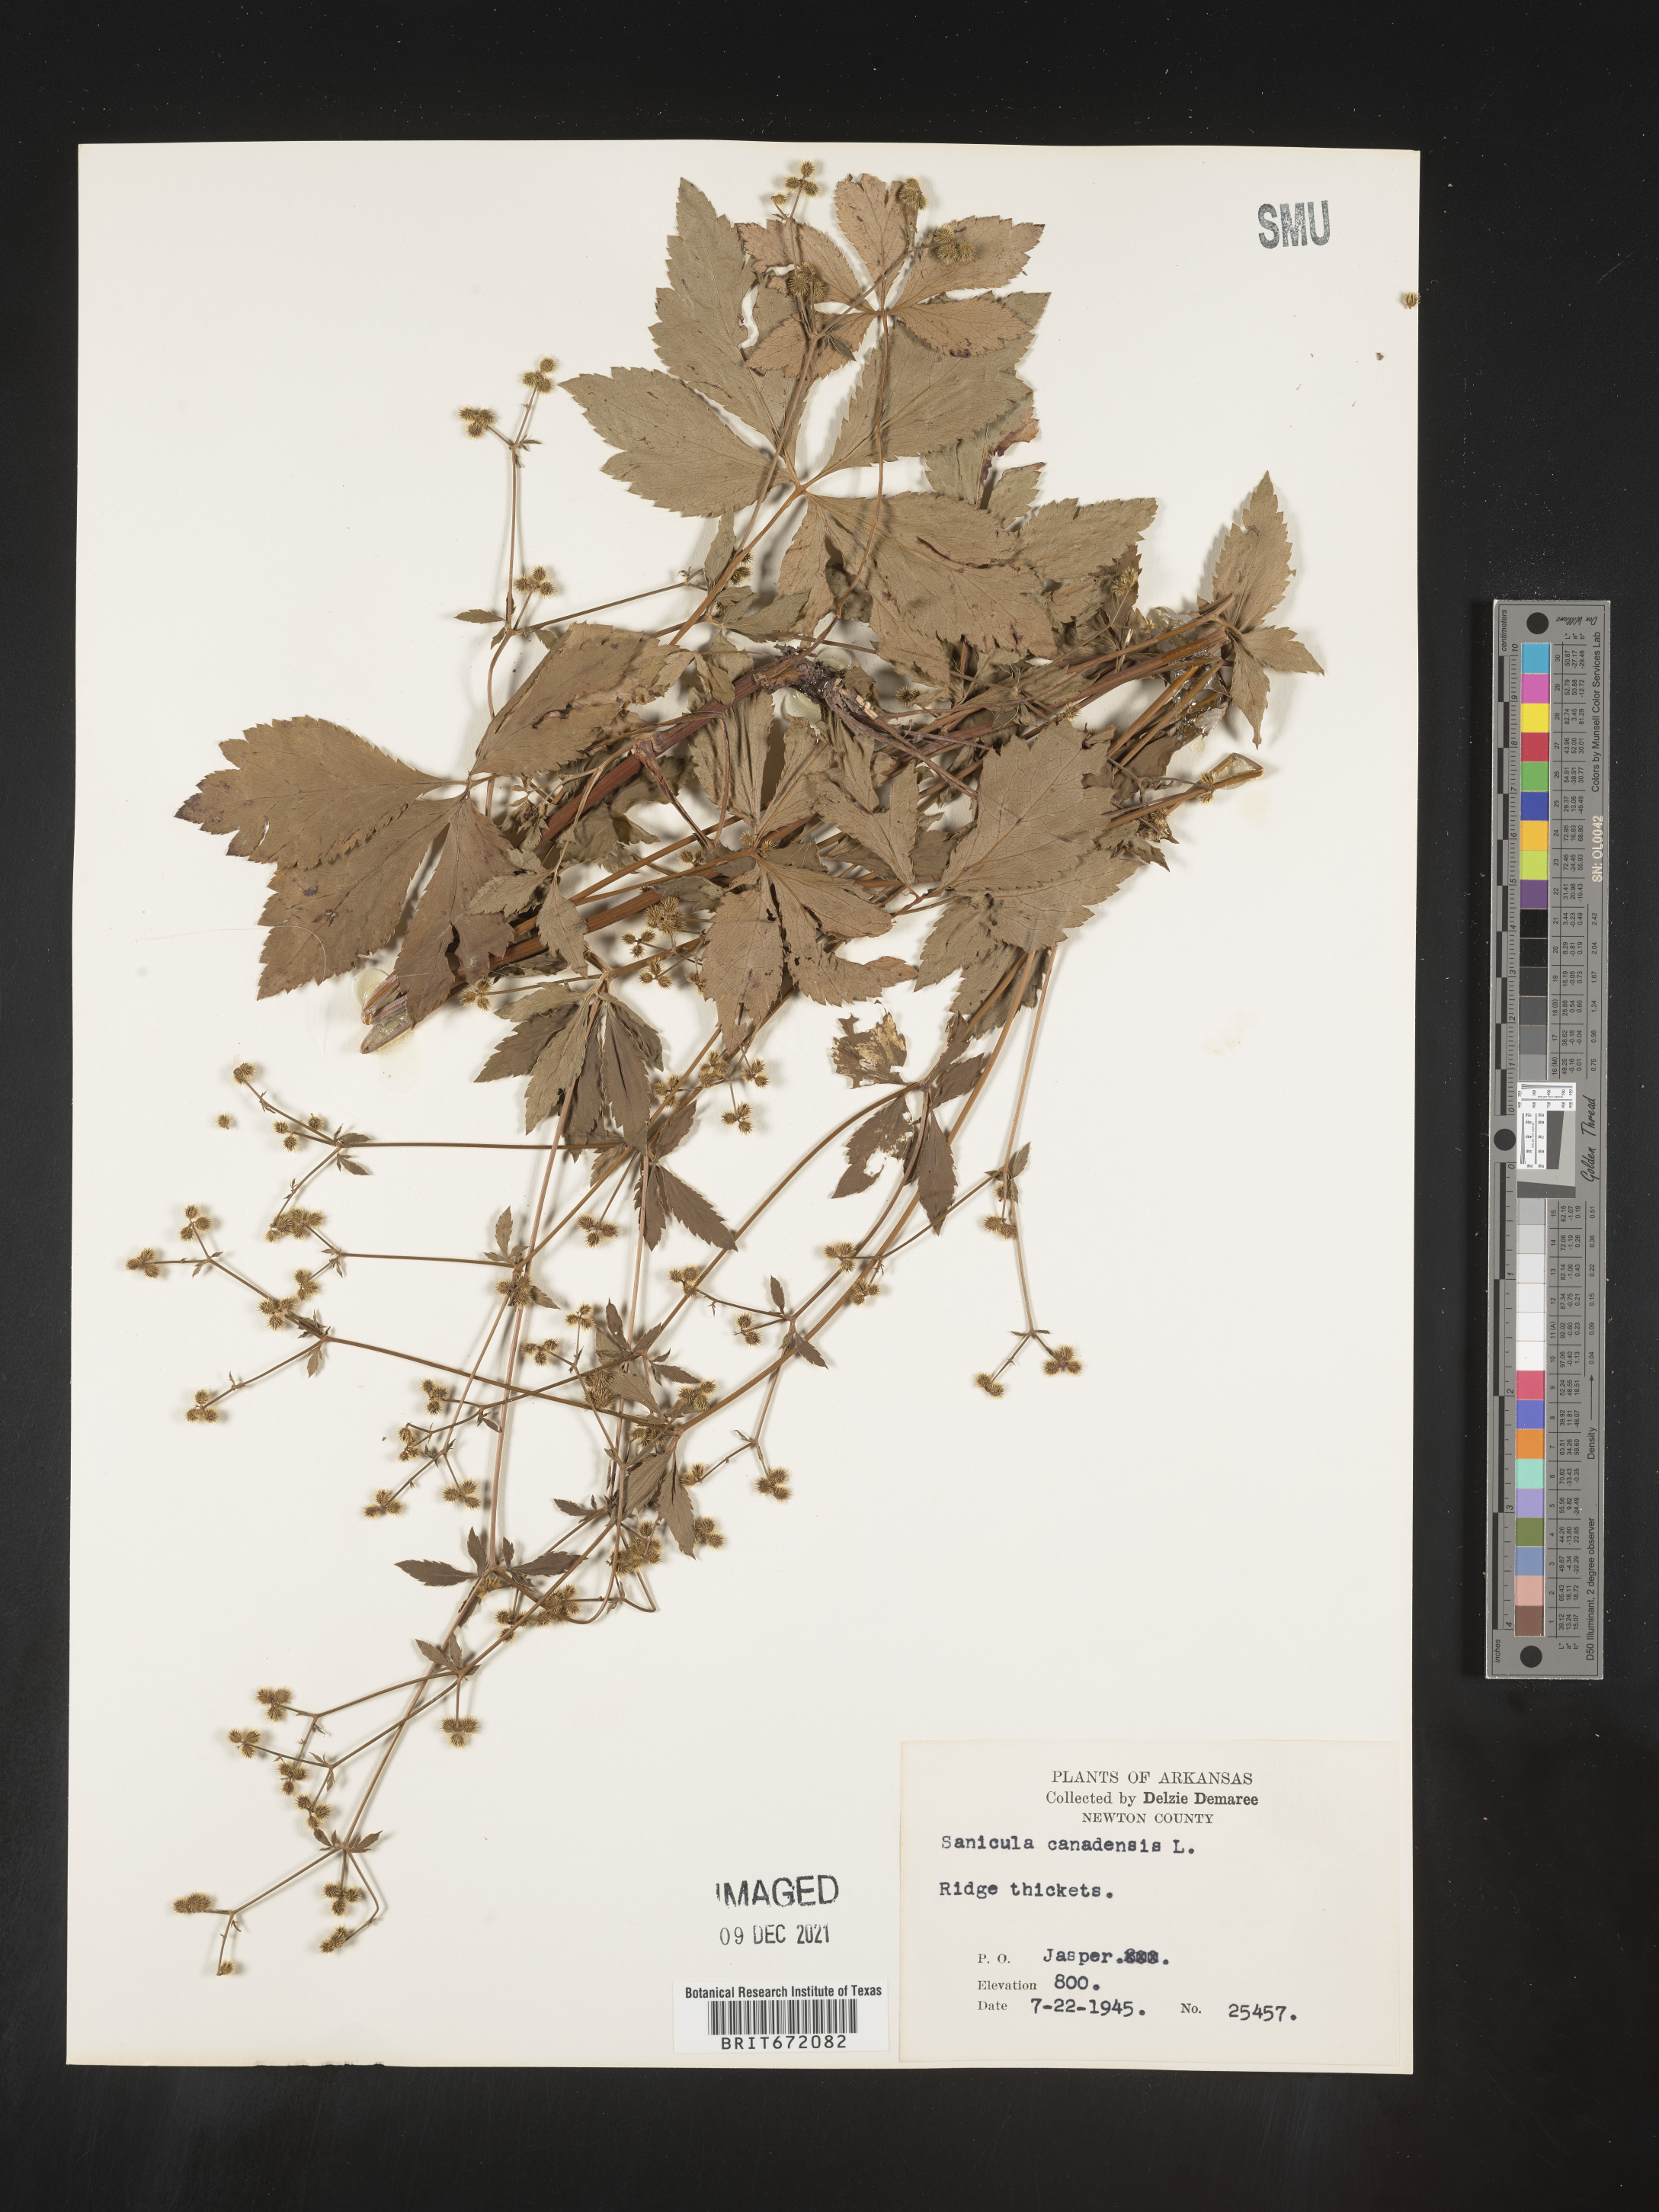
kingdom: Plantae
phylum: Tracheophyta
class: Magnoliopsida
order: Apiales
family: Apiaceae
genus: Sanicula
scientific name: Sanicula canadensis
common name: Canada sanicle
